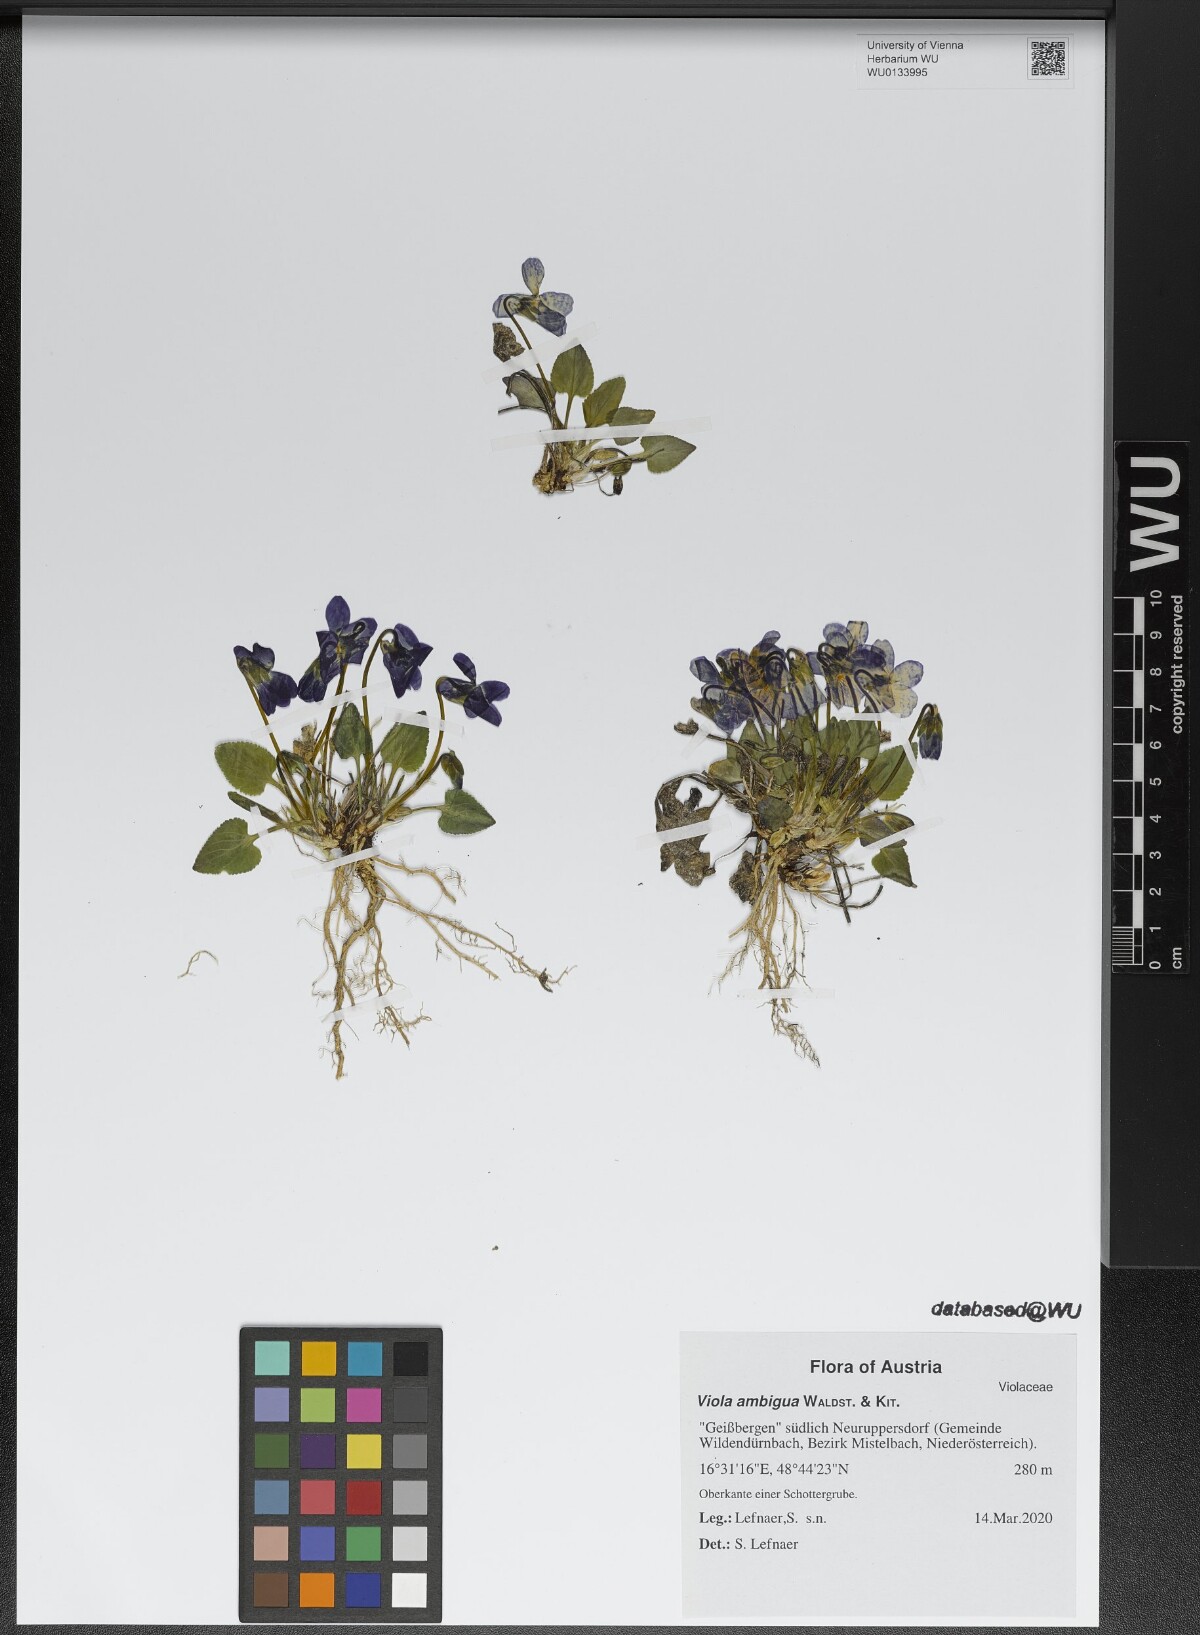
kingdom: Plantae
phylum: Tracheophyta
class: Magnoliopsida
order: Malpighiales
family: Violaceae
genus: Viola
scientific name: Viola ambigua
